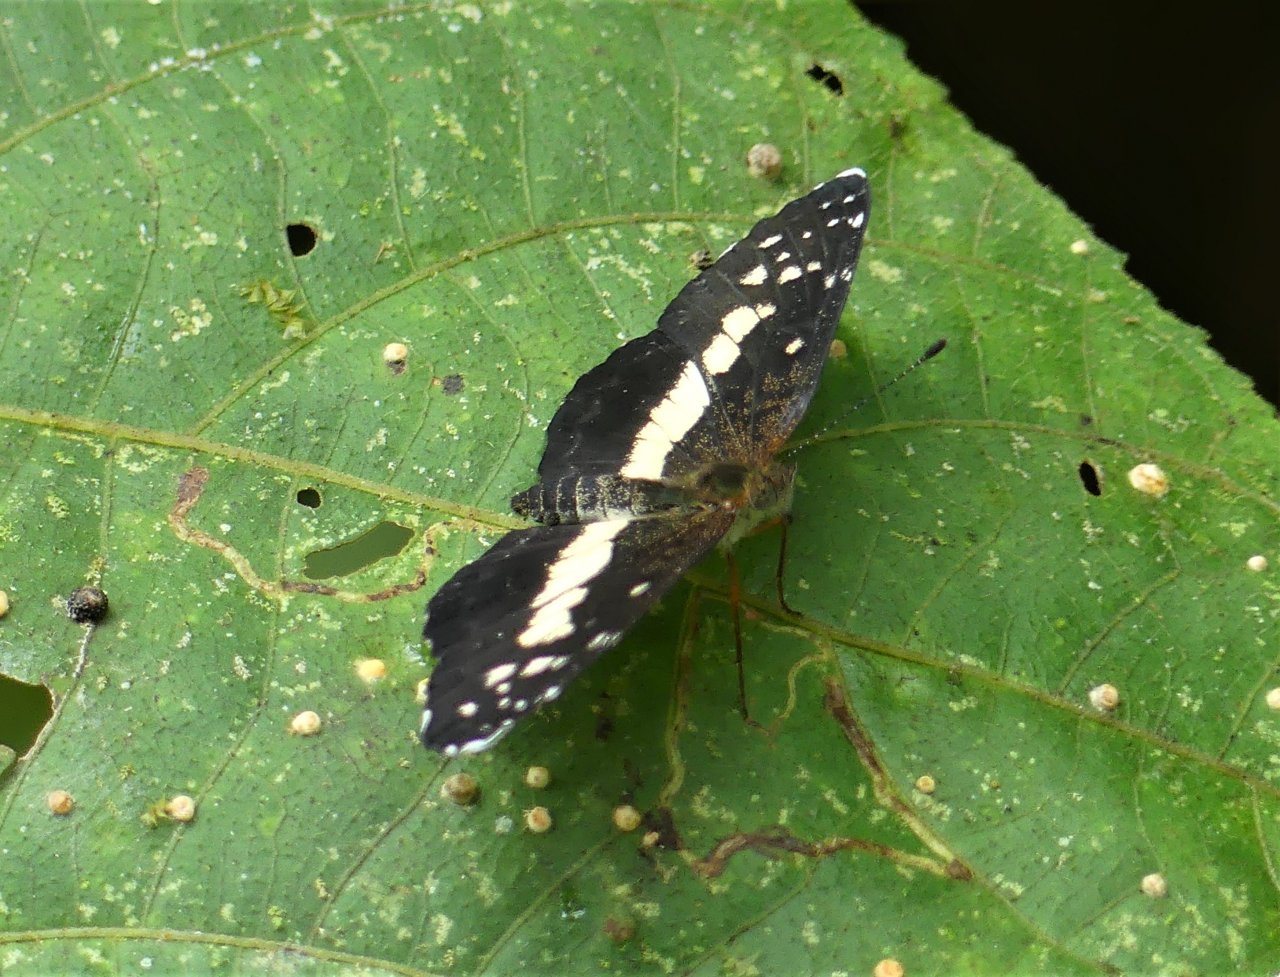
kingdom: Animalia
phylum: Arthropoda
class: Insecta
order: Lepidoptera
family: Nymphalidae
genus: Castilia
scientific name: Castilia ofella
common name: White-dotted Crescent
